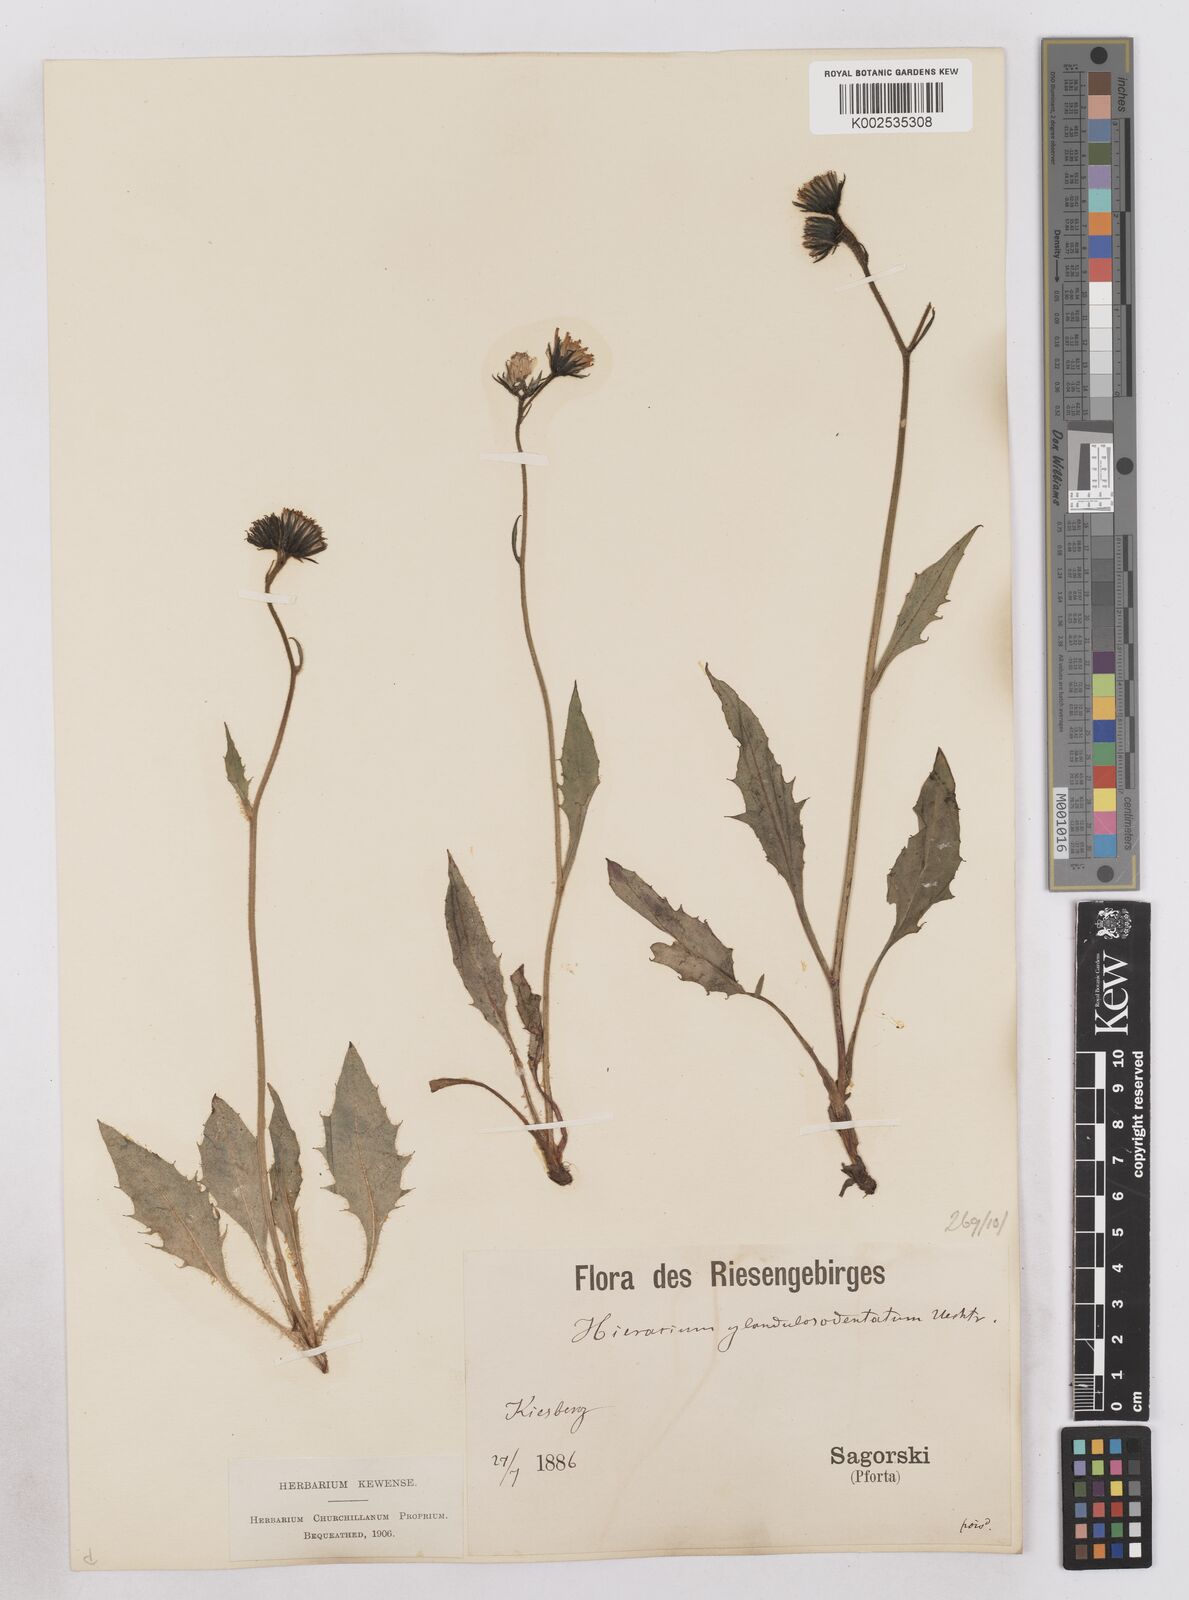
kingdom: Plantae
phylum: Tracheophyta
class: Magnoliopsida
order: Asterales
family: Asteraceae
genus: Hieracium
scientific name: Hieracium bocconei
